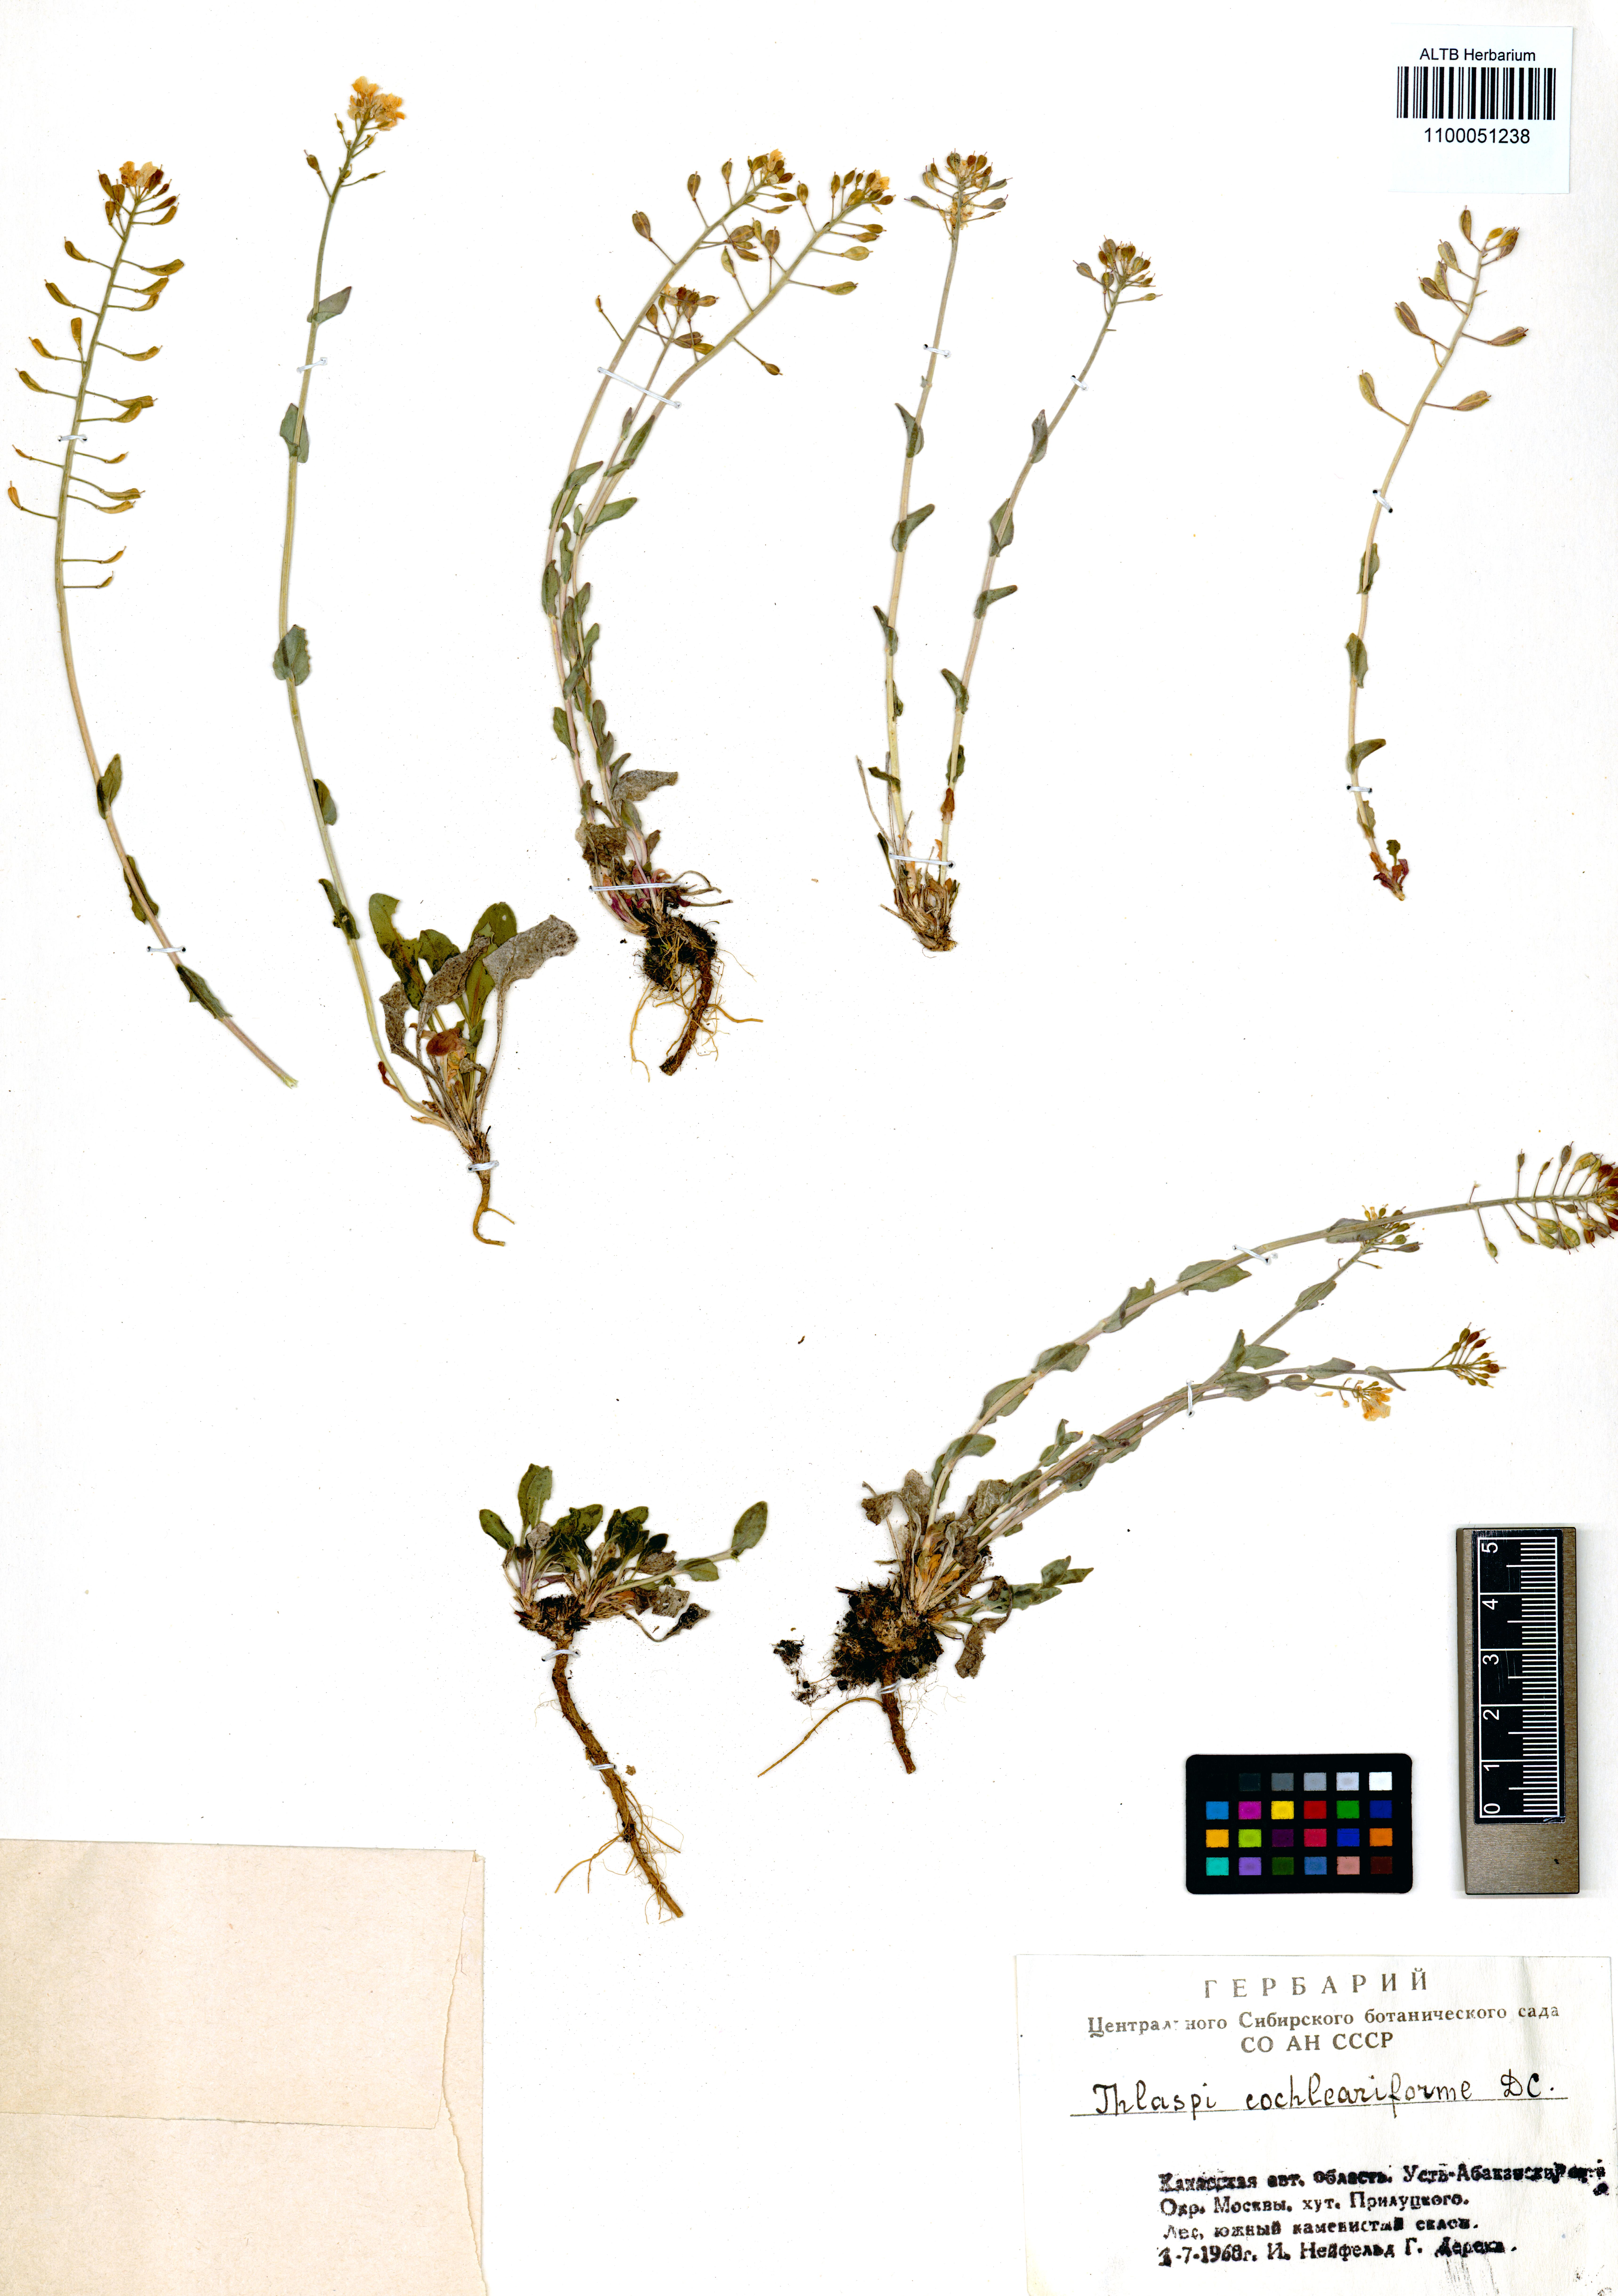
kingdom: Plantae
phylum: Tracheophyta
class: Magnoliopsida
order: Brassicales
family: Brassicaceae
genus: Noccaea
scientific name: Noccaea thlaspidioides
